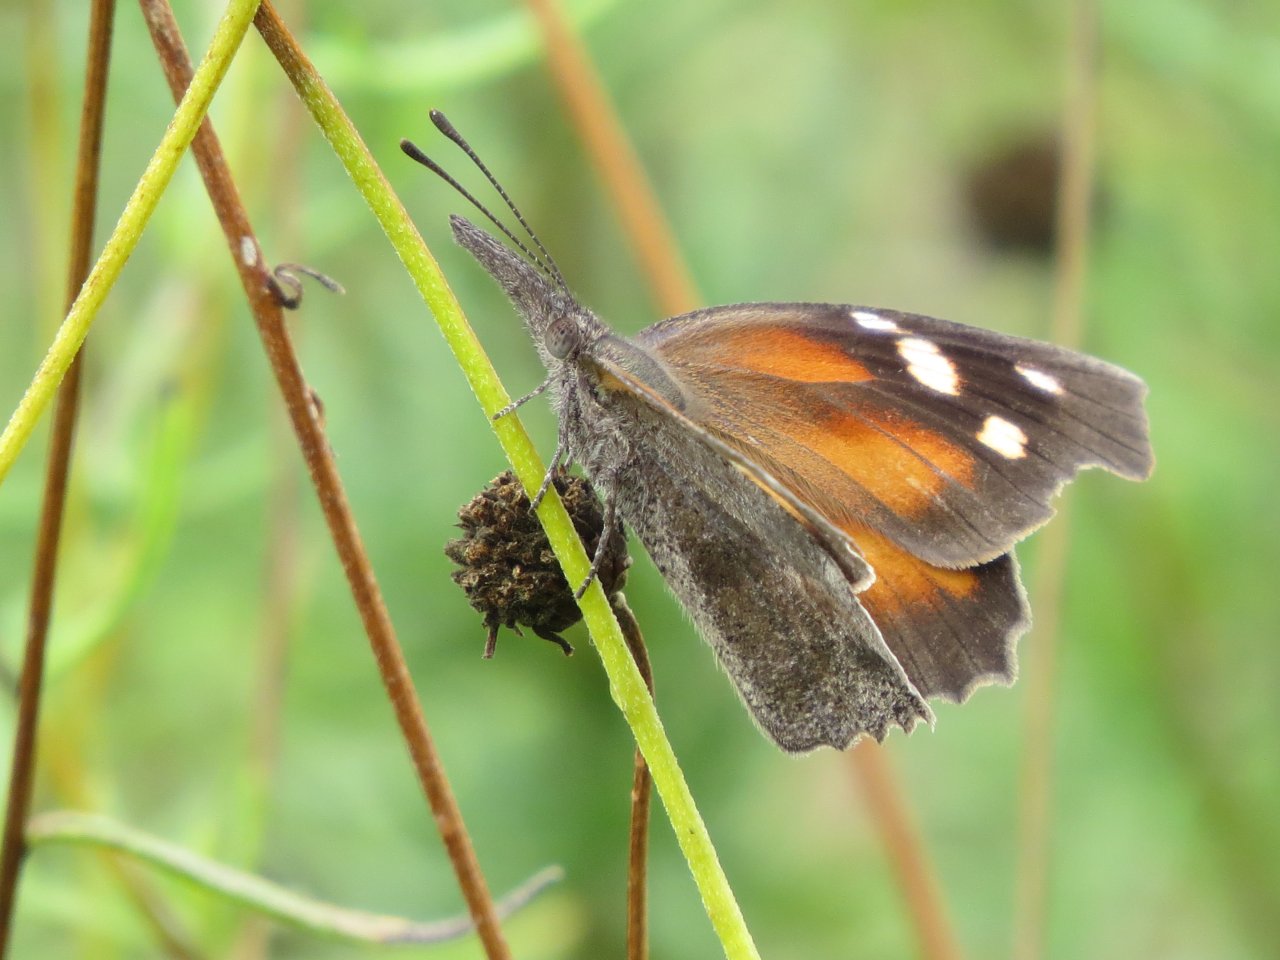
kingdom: Animalia
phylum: Arthropoda
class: Insecta
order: Lepidoptera
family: Nymphalidae
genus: Libytheana
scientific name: Libytheana carinenta
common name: American Snout
